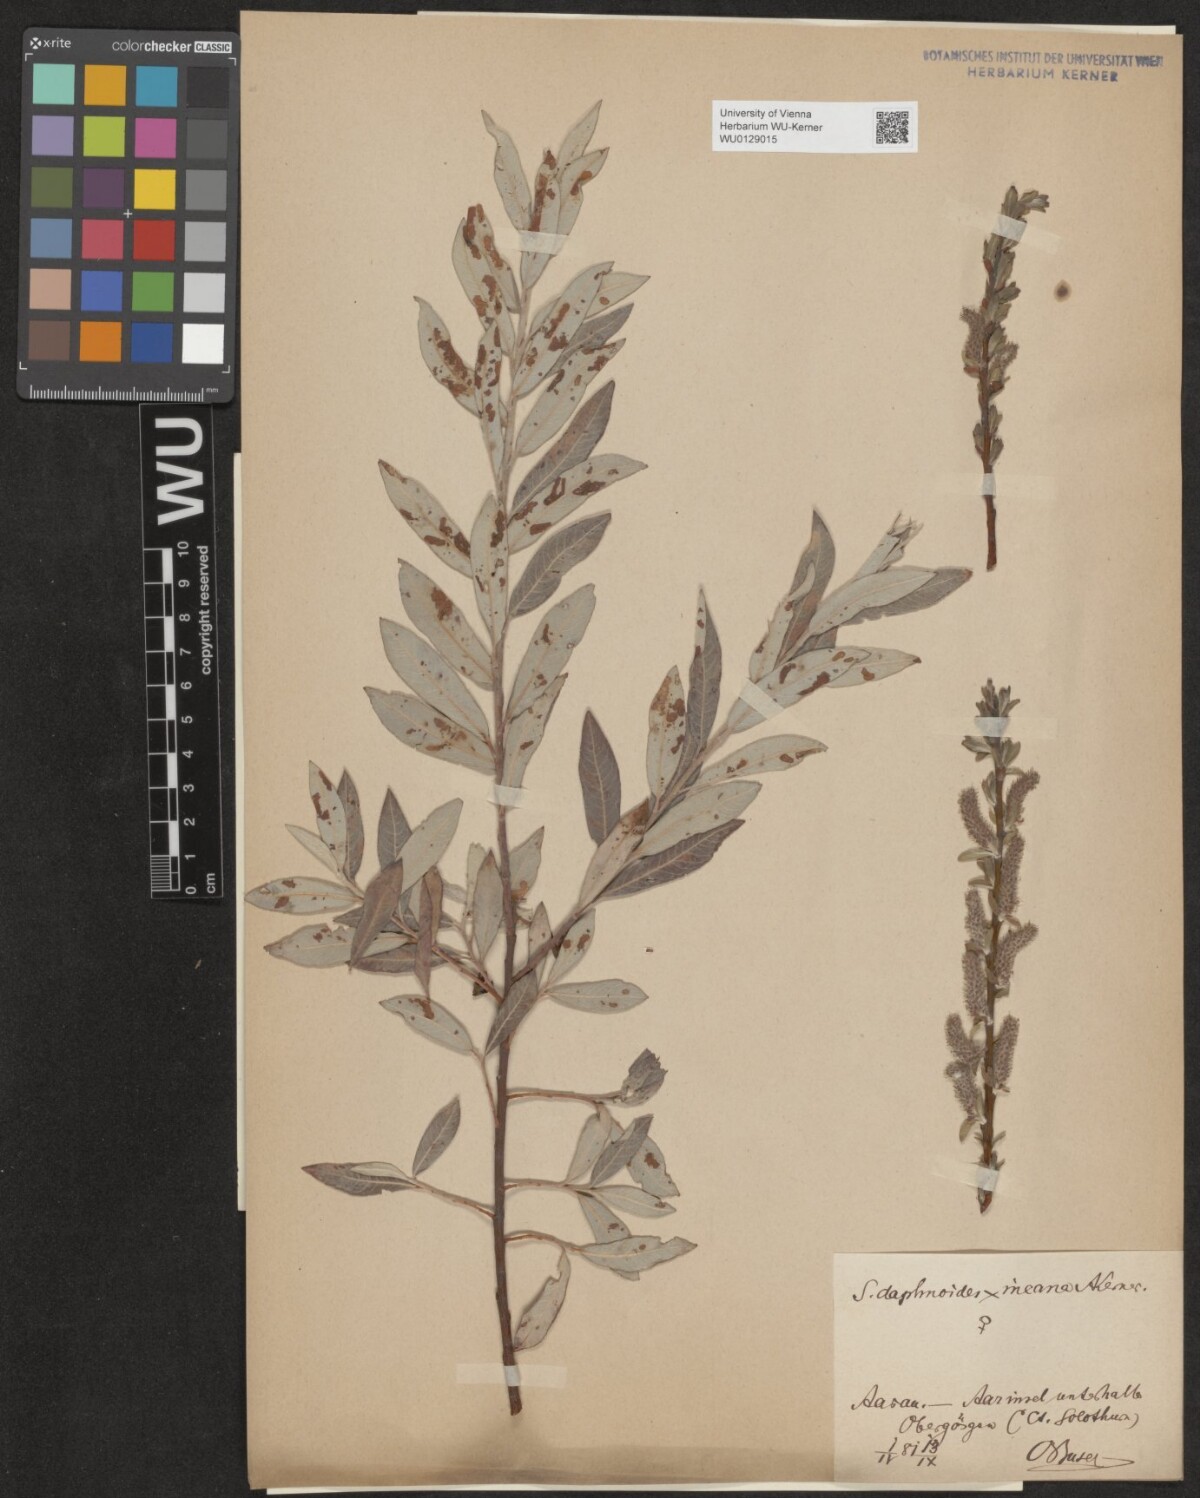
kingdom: Plantae
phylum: Tracheophyta
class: Magnoliopsida
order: Malpighiales
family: Salicaceae
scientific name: Salicaceae
